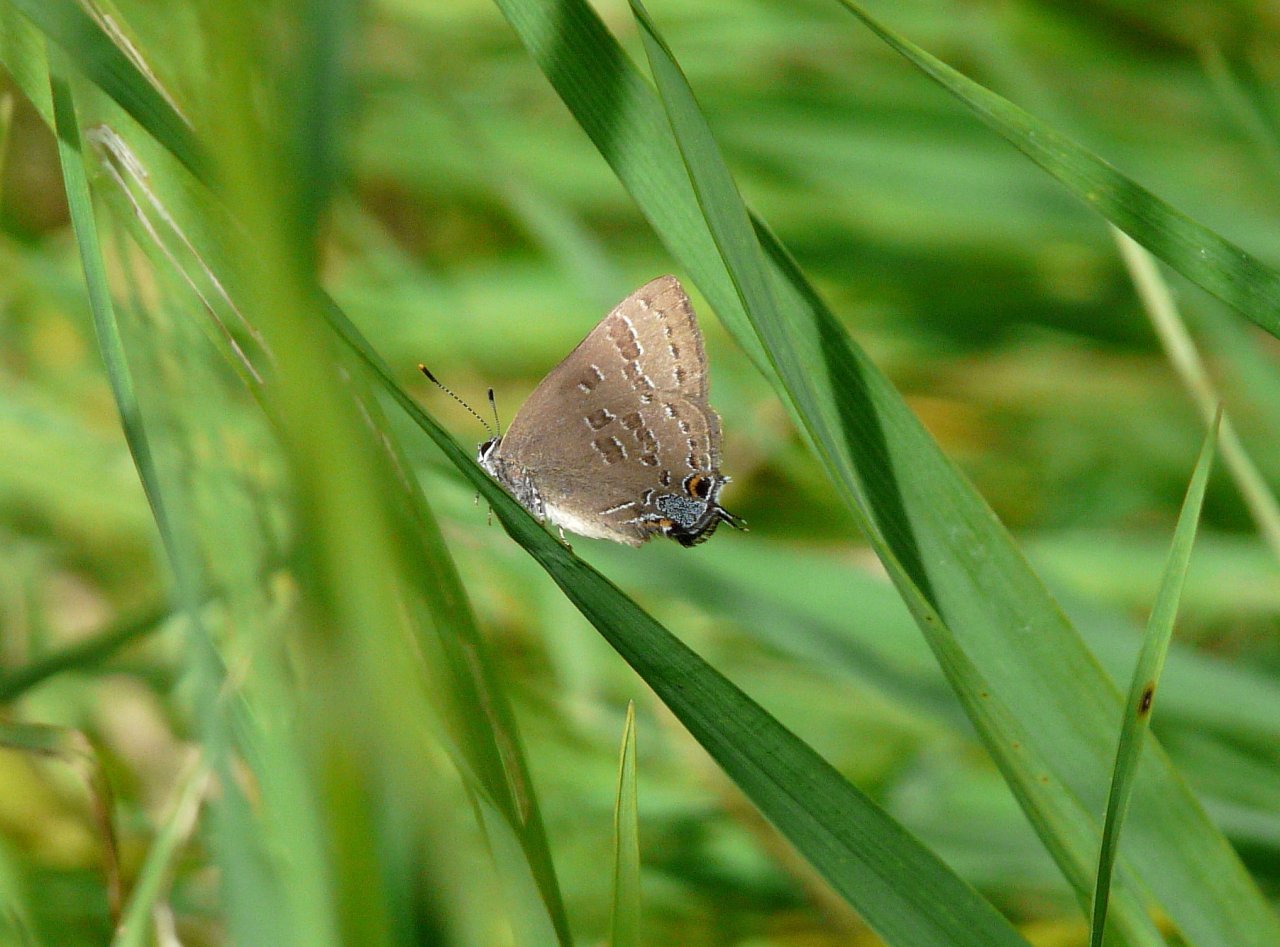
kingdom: Animalia
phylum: Arthropoda
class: Insecta
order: Lepidoptera
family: Lycaenidae
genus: Strymon
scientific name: Strymon caryaevorus
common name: Hickory Hairstreak
